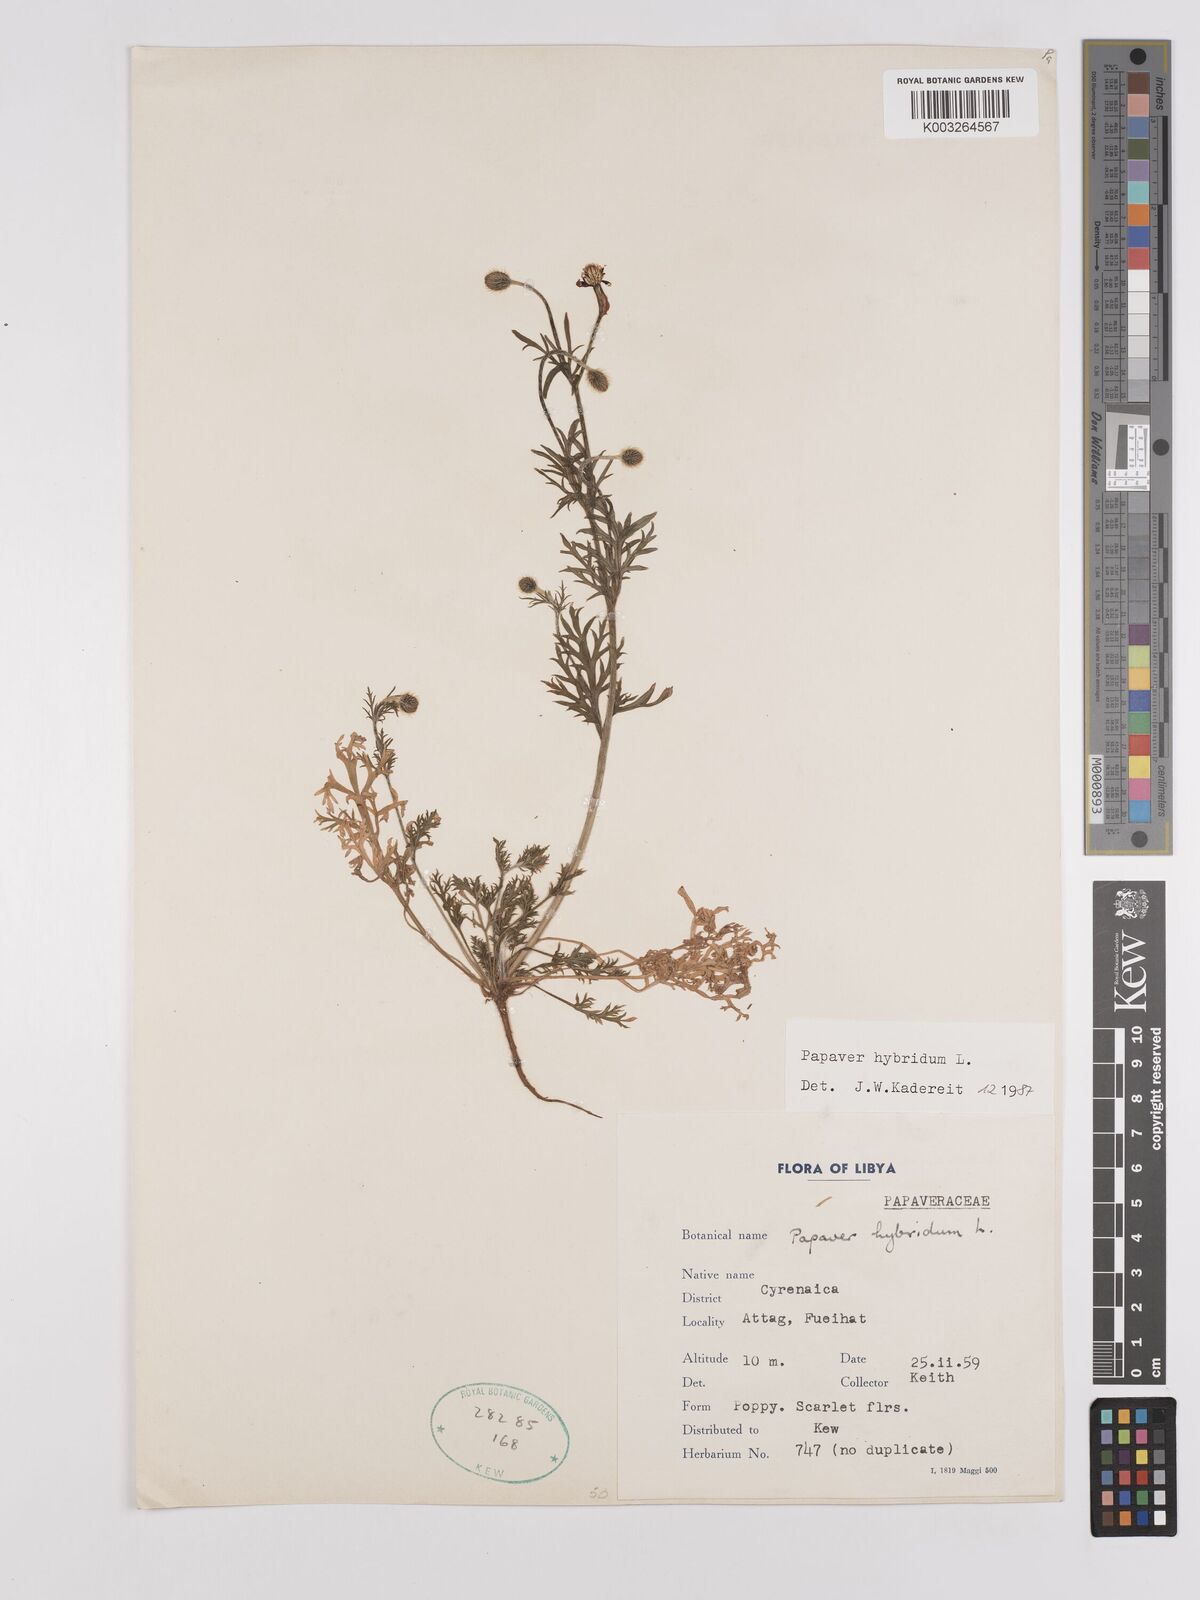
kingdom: Plantae
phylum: Tracheophyta
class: Magnoliopsida
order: Ranunculales
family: Papaveraceae
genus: Papaver
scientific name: Papaver
